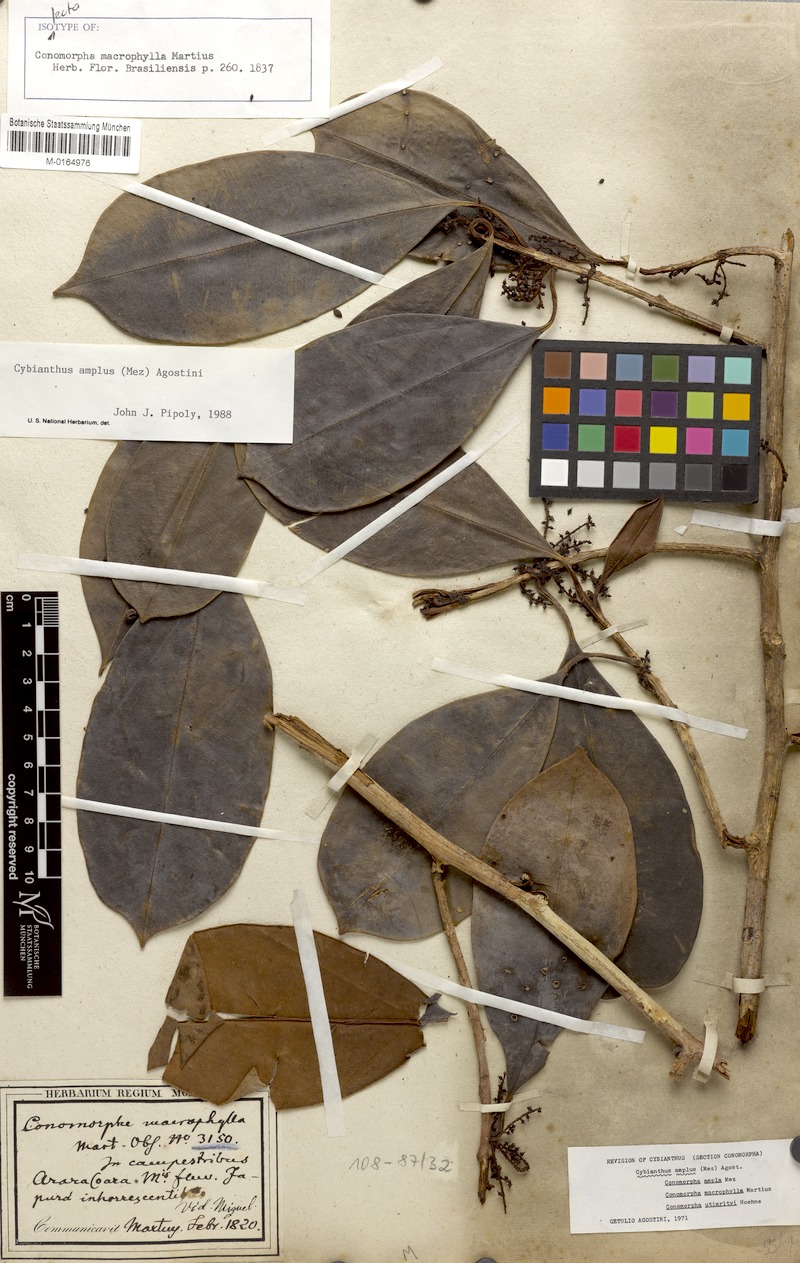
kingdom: Plantae
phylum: Tracheophyta
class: Magnoliopsida
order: Ericales
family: Primulaceae
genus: Cybianthus
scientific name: Cybianthus amplus
